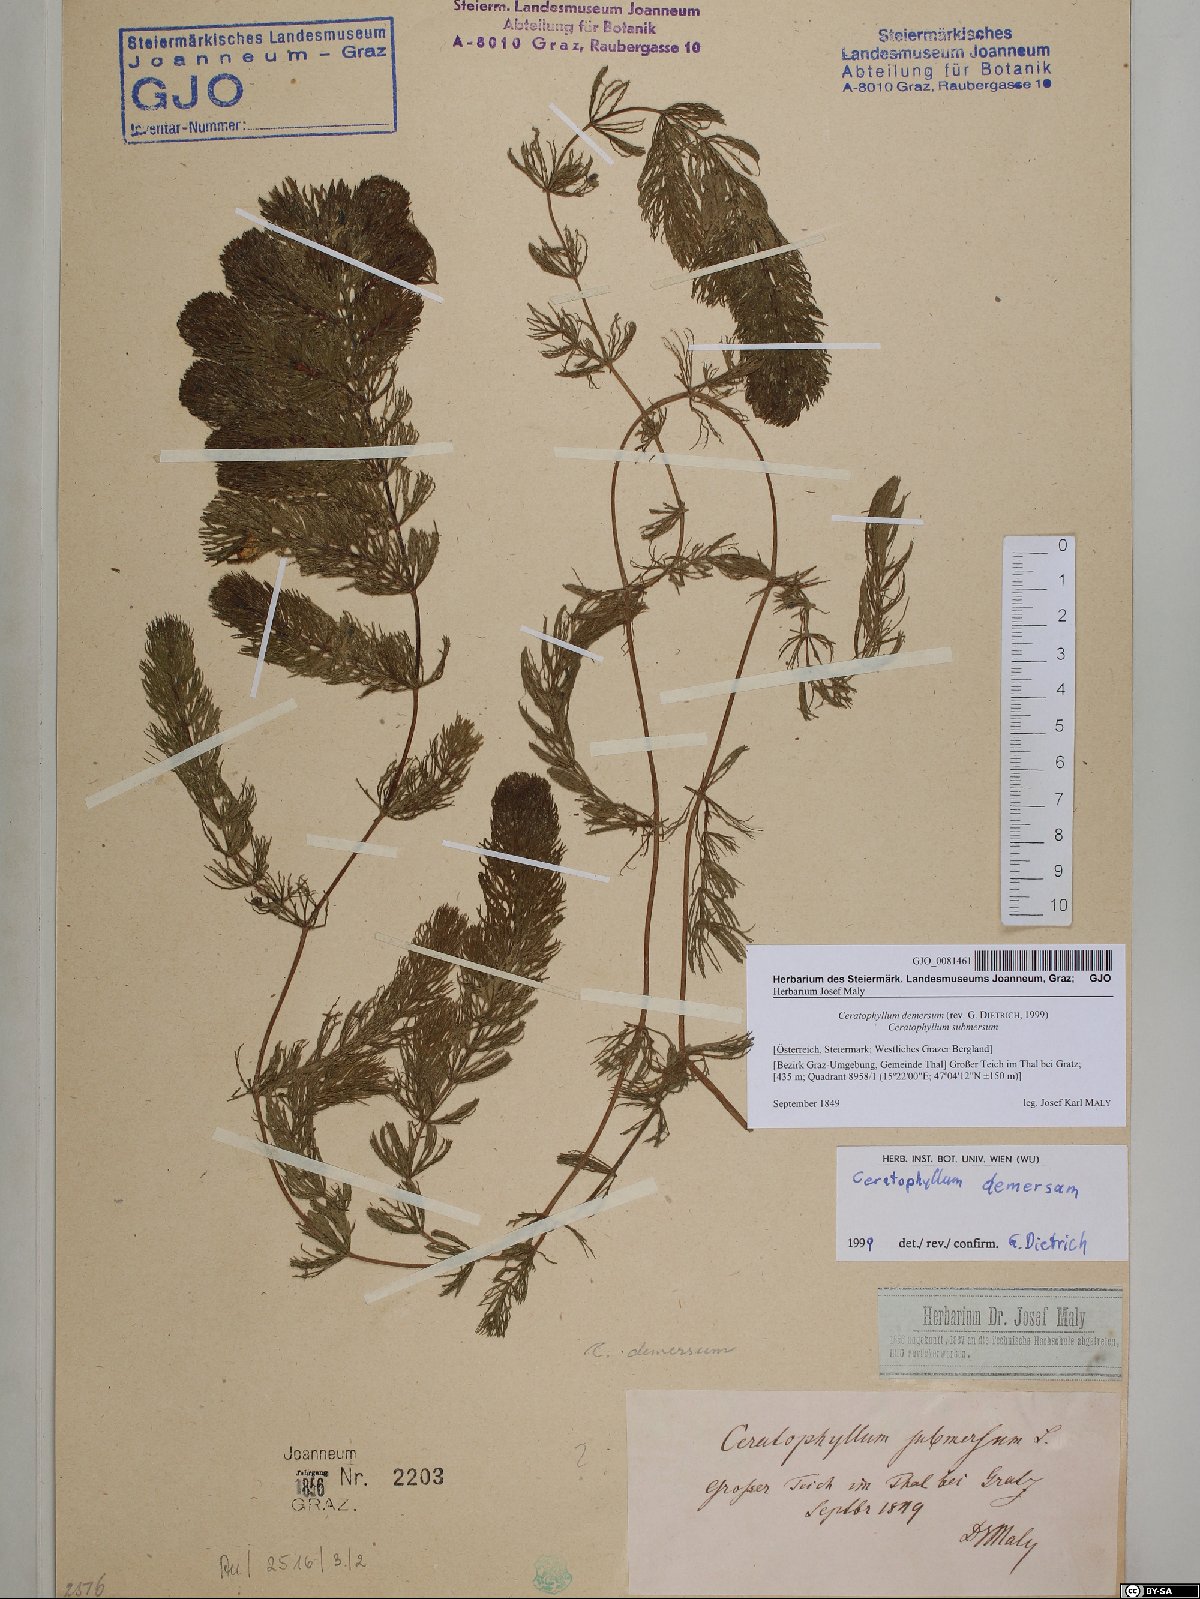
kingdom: Plantae
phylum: Tracheophyta
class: Magnoliopsida
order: Ceratophyllales
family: Ceratophyllaceae
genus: Ceratophyllum
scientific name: Ceratophyllum demersum
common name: Rigid hornwort
